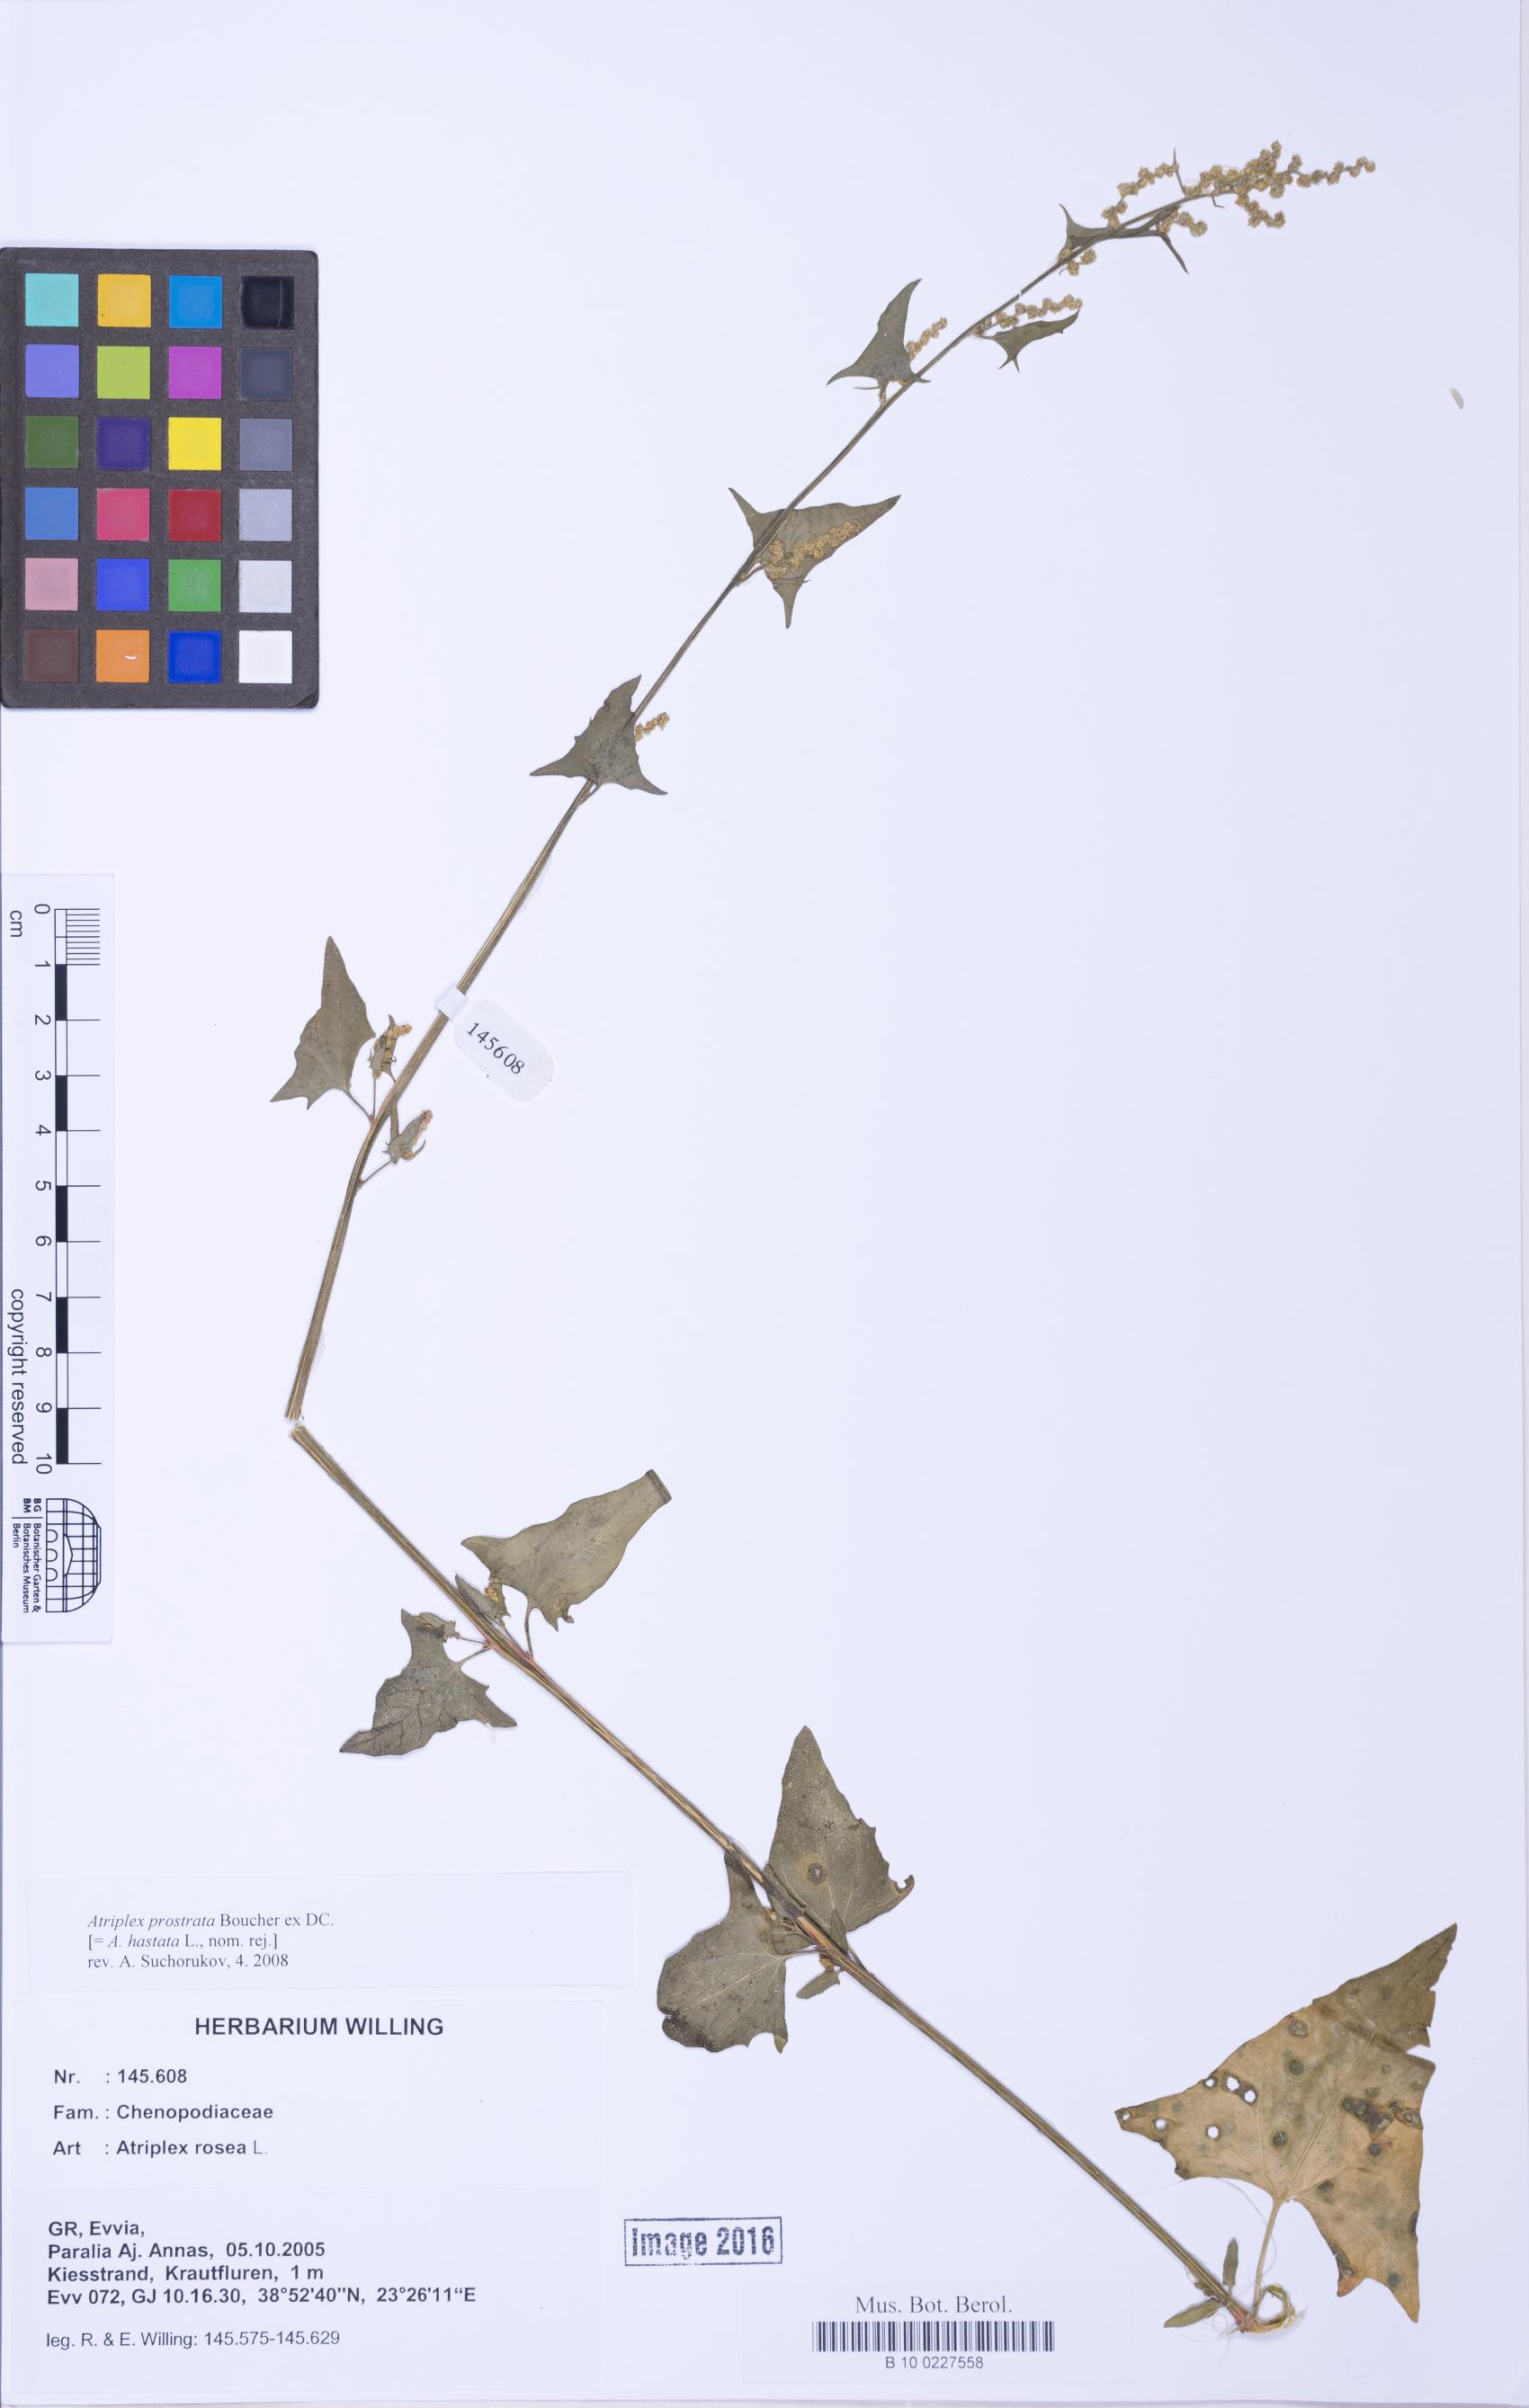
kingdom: Plantae
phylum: Tracheophyta
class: Magnoliopsida
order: Caryophyllales
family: Amaranthaceae
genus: Atriplex
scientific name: Atriplex prostrata
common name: Spear-leaved orache
